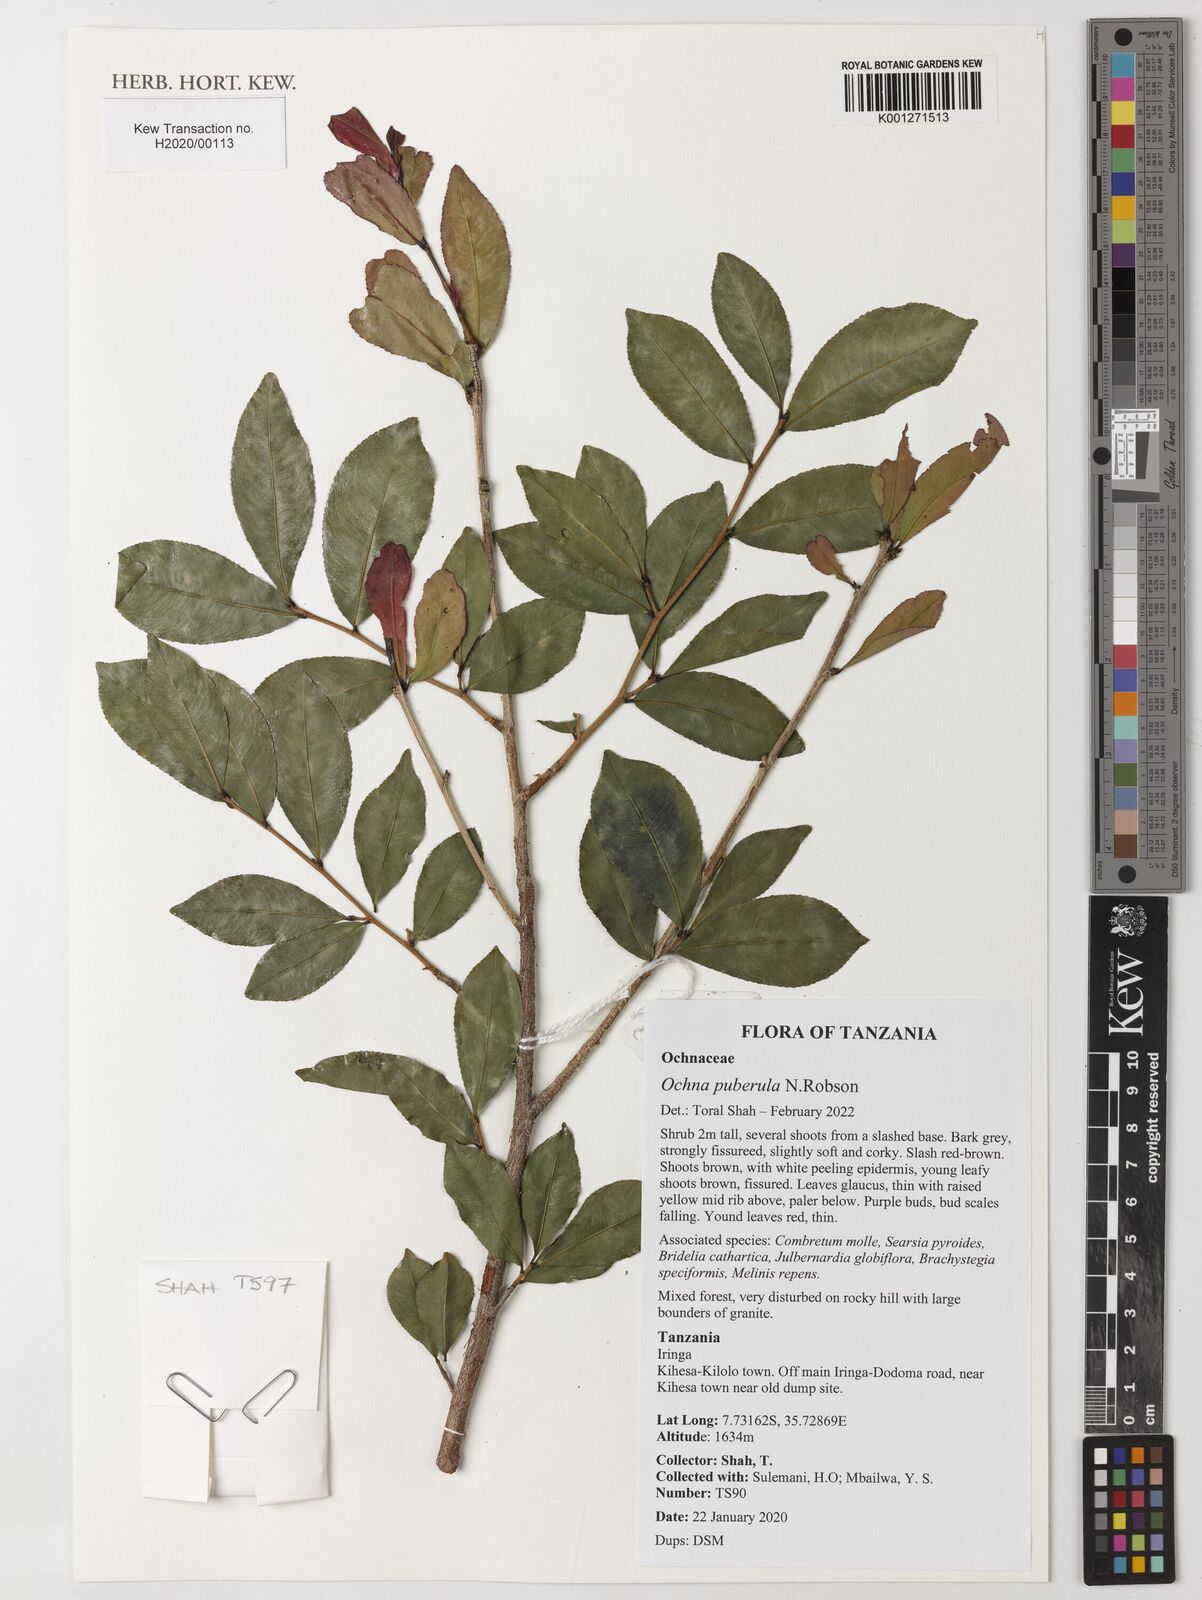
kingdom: Plantae
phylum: Tracheophyta
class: Magnoliopsida
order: Malpighiales
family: Ochnaceae
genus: Ochna
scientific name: Ochna puberula
